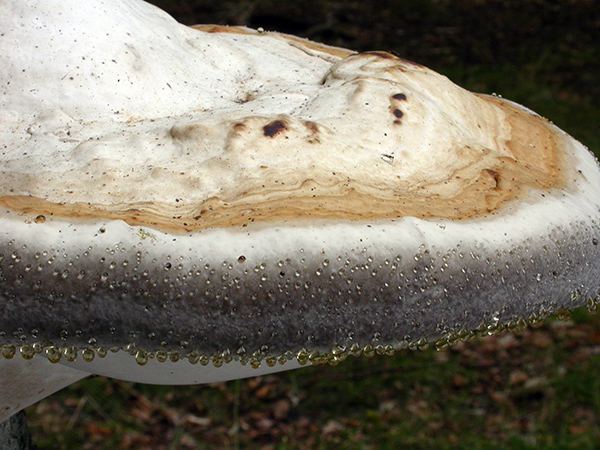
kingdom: Fungi
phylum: Basidiomycota
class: Agaricomycetes
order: Polyporales
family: Polyporaceae
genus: Fomes
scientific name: Fomes fomentarius
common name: tøndersvamp
